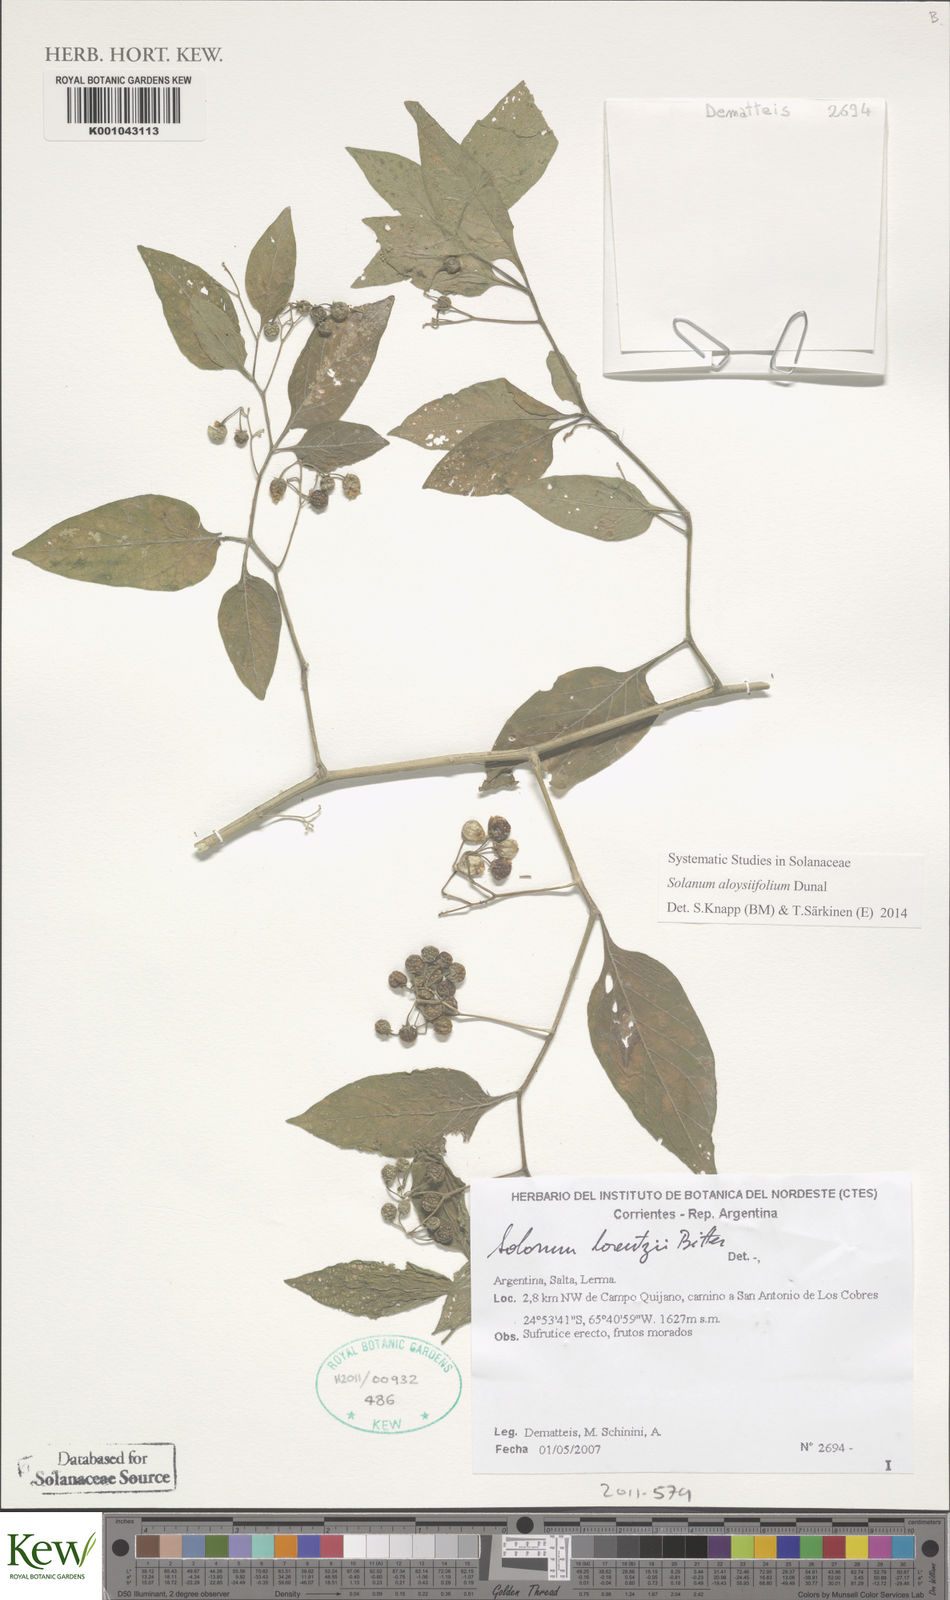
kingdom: Plantae
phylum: Tracheophyta
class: Magnoliopsida
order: Solanales
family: Solanaceae
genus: Solanum
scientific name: Solanum aloysiifolium
